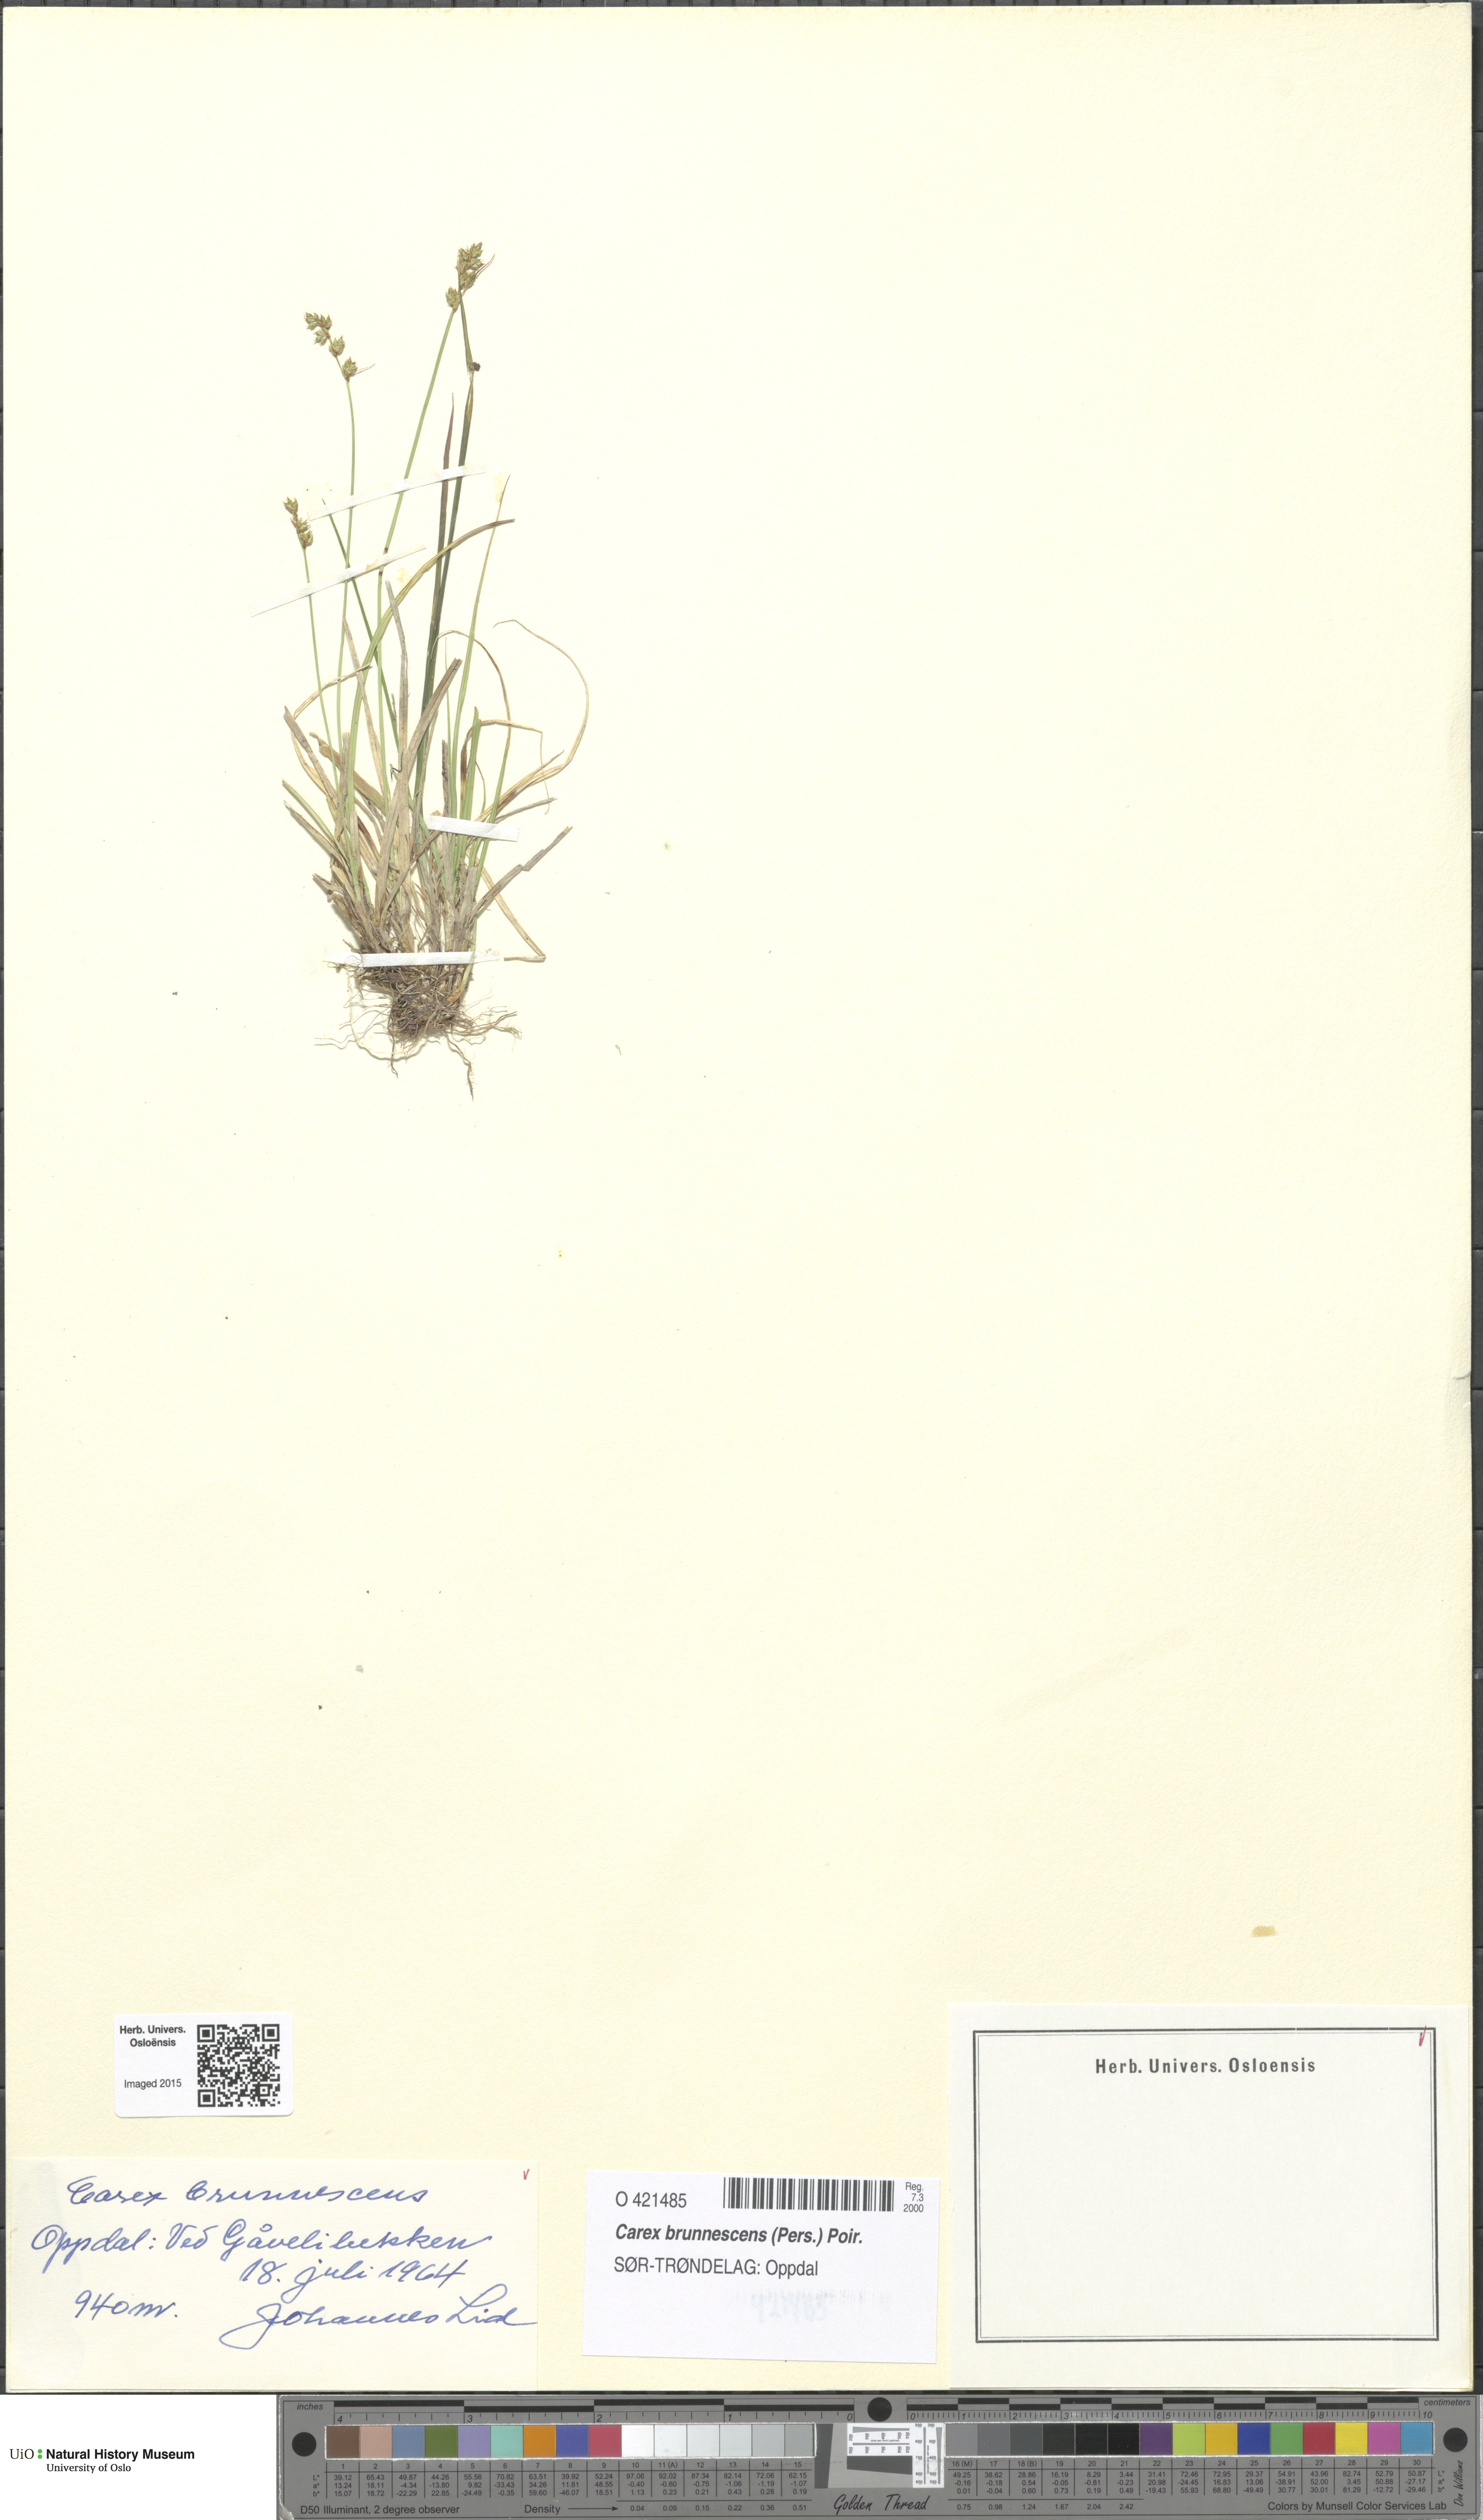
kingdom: Plantae
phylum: Tracheophyta
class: Liliopsida
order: Poales
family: Cyperaceae
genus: Carex
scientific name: Carex brunnescens
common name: Brown sedge
